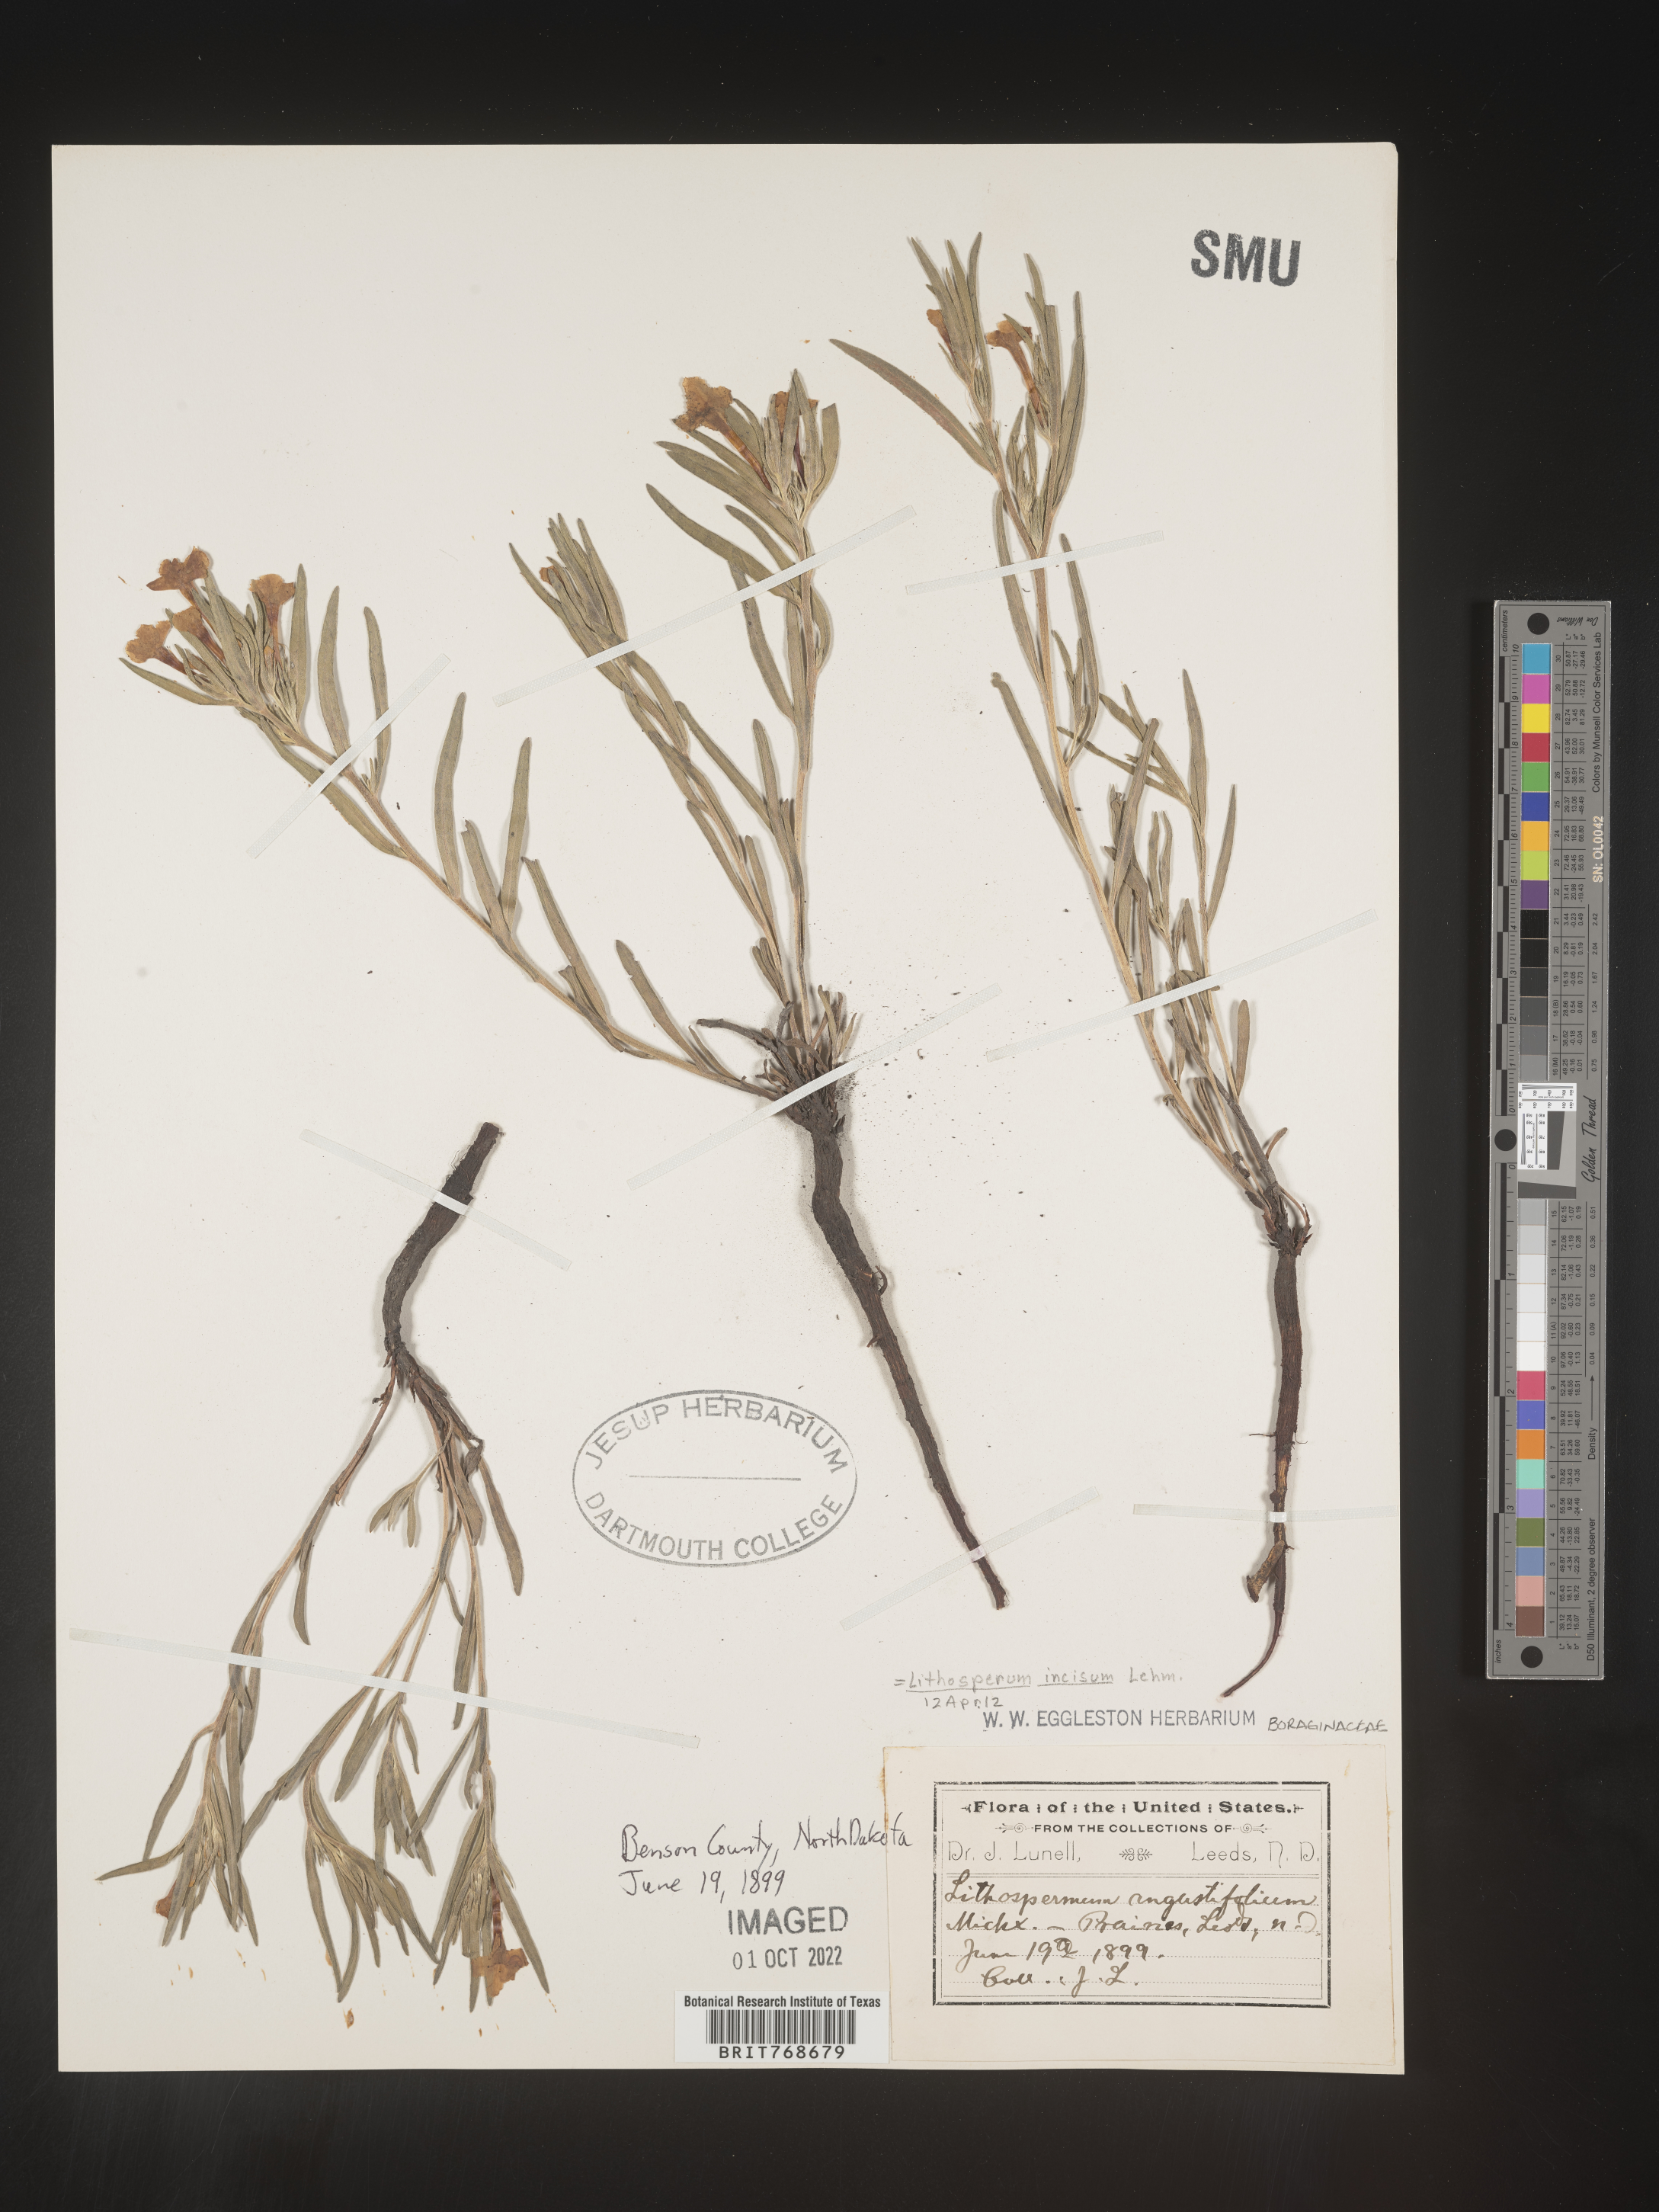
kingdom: Plantae
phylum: Tracheophyta
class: Magnoliopsida
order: Boraginales
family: Boraginaceae
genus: Lithospermum
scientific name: Lithospermum incisum
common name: Fringed gromwell
